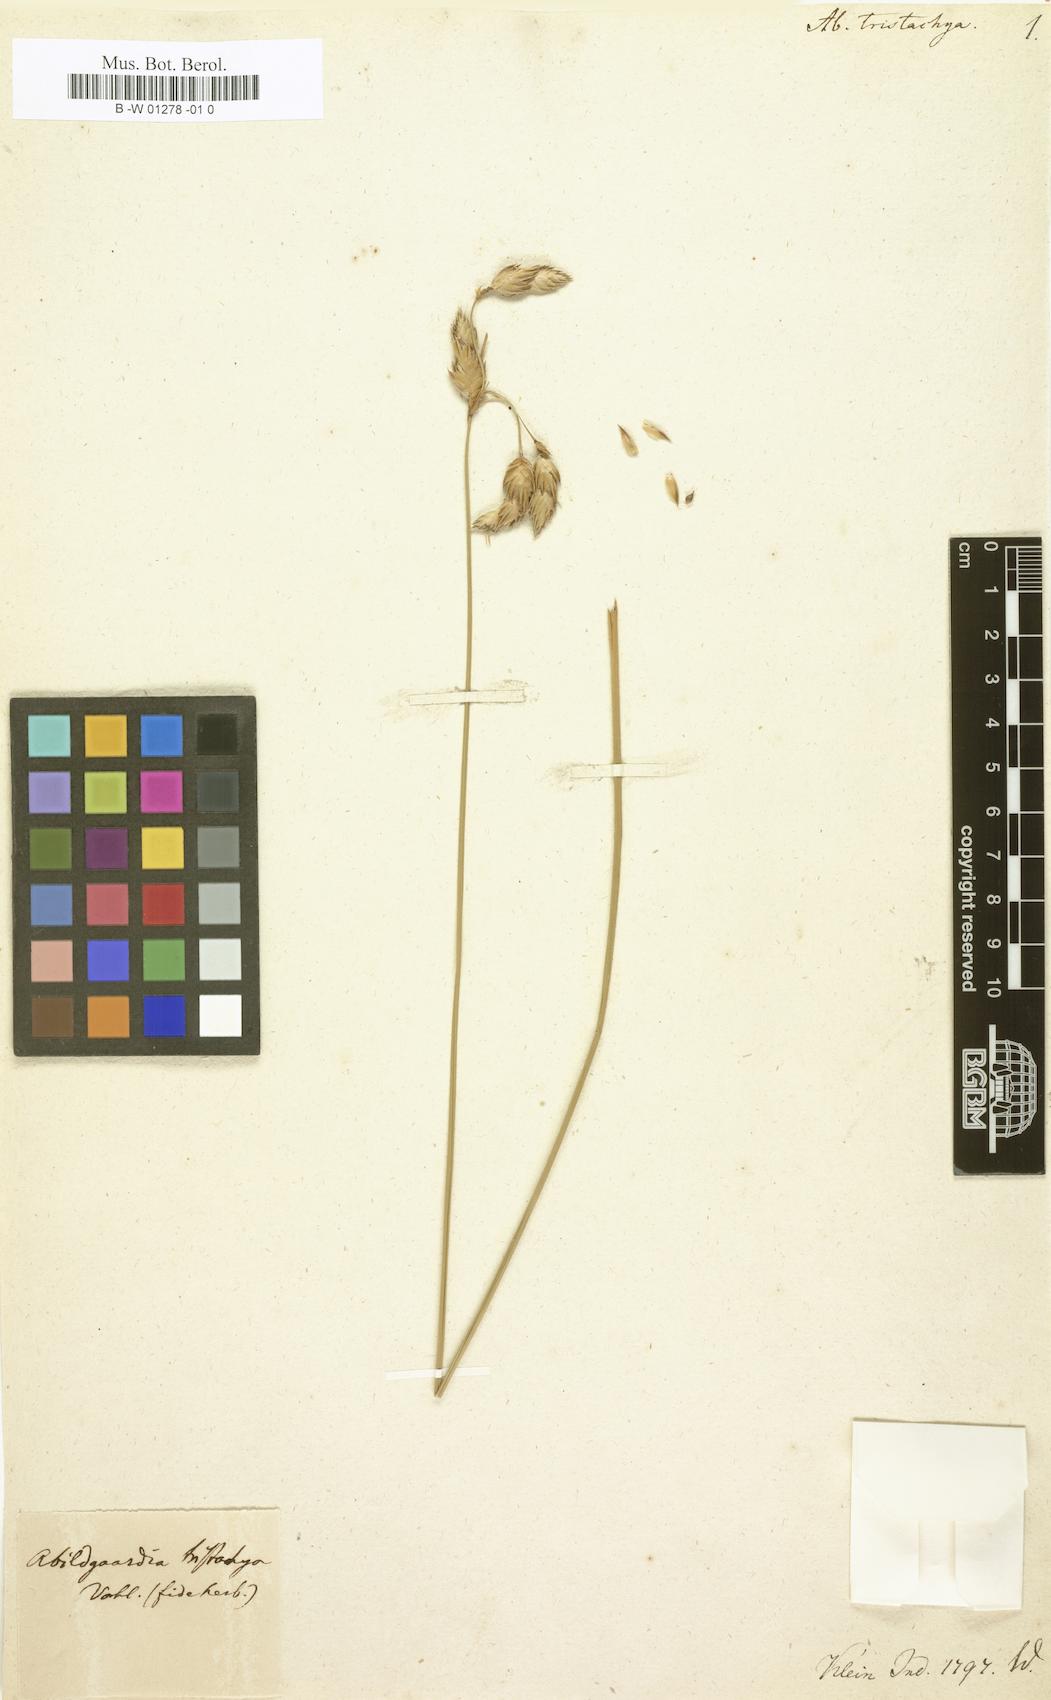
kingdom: Plantae
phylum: Tracheophyta
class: Liliopsida
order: Poales
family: Cyperaceae
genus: Abildgaardia
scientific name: Abildgaardia triflora
